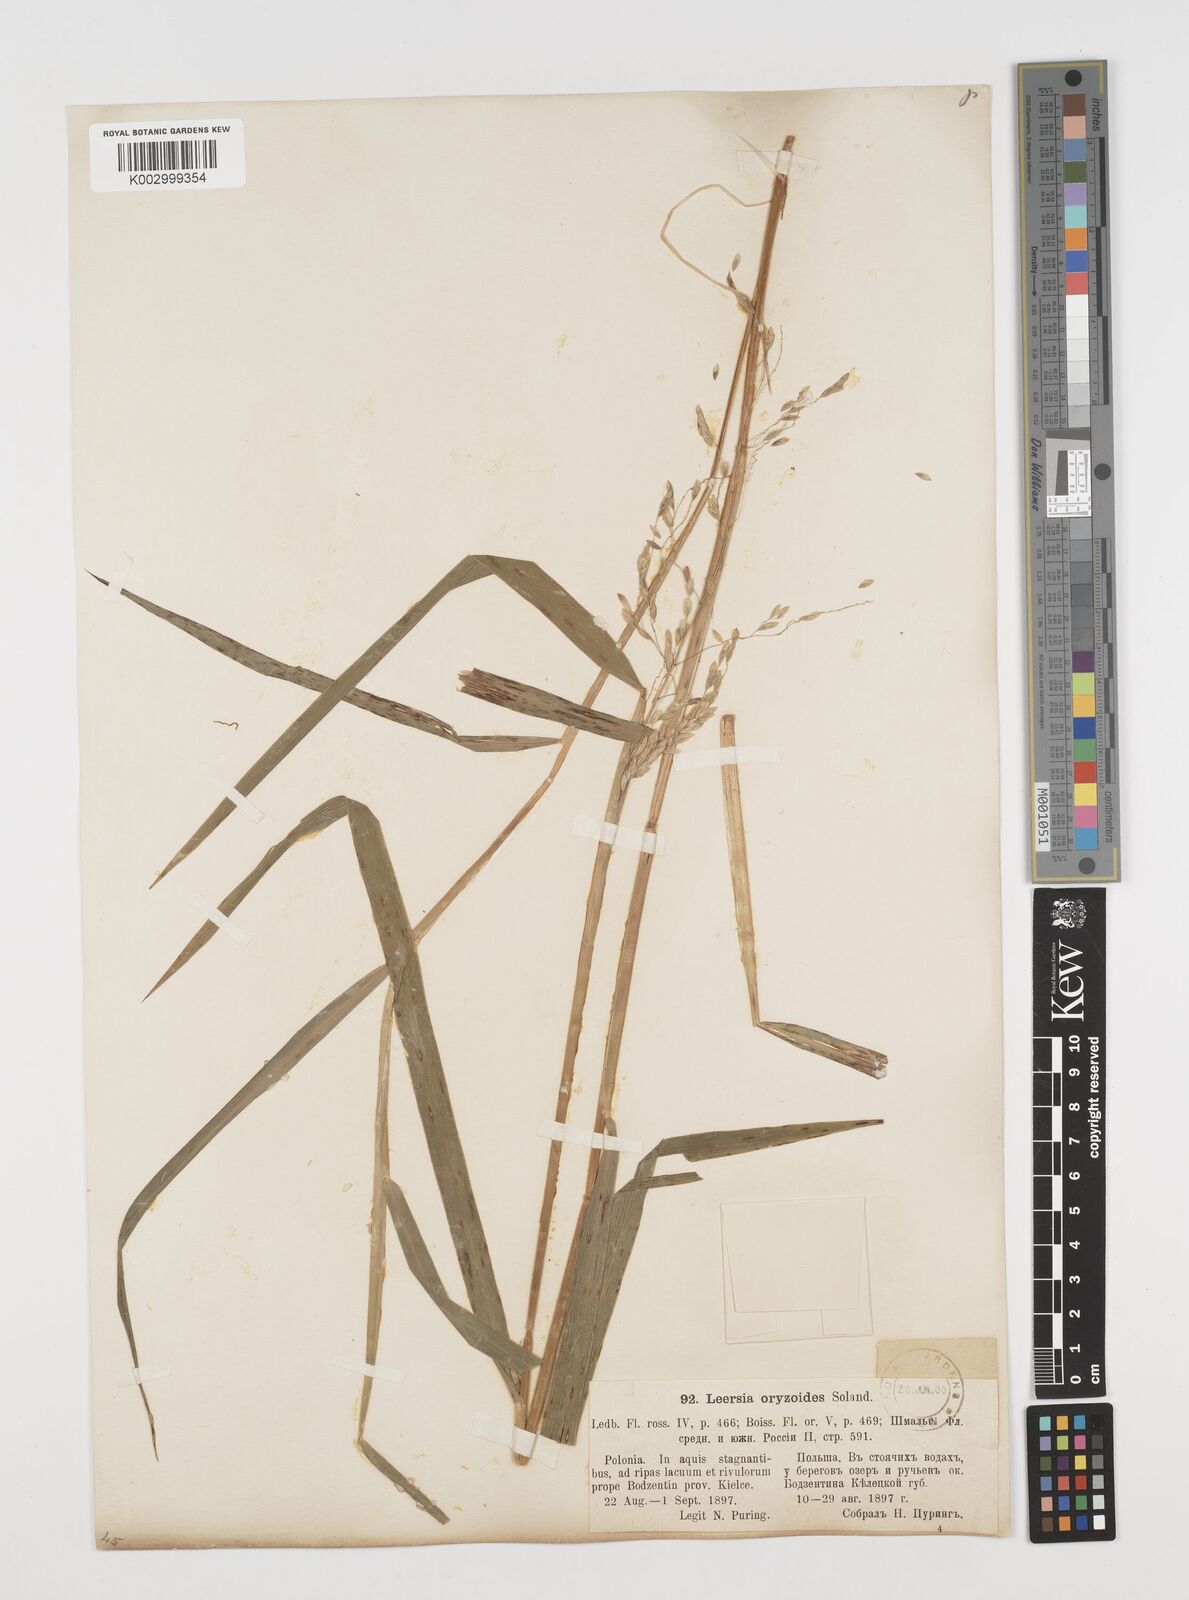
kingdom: Plantae
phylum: Tracheophyta
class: Liliopsida
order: Poales
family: Poaceae
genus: Leersia
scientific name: Leersia oryzoides
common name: Cut-grass
